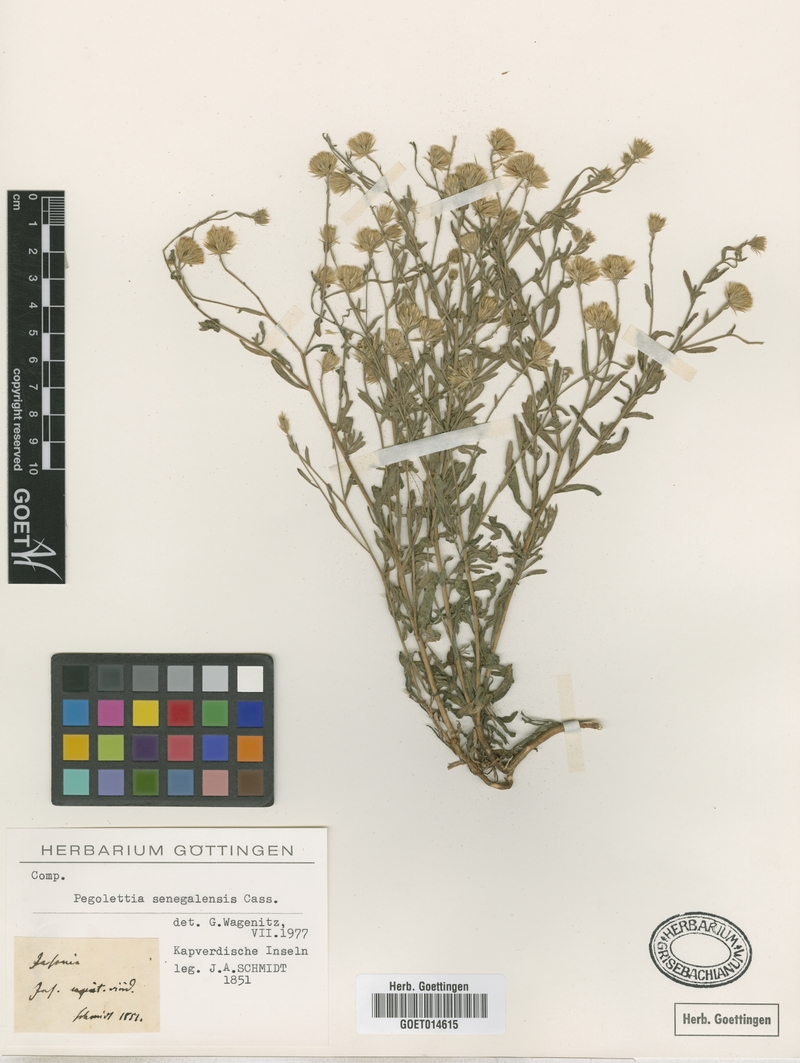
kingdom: Plantae
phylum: Tracheophyta
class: Magnoliopsida
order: Asterales
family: Asteraceae
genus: Pegolettia
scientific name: Pegolettia senegalensis
